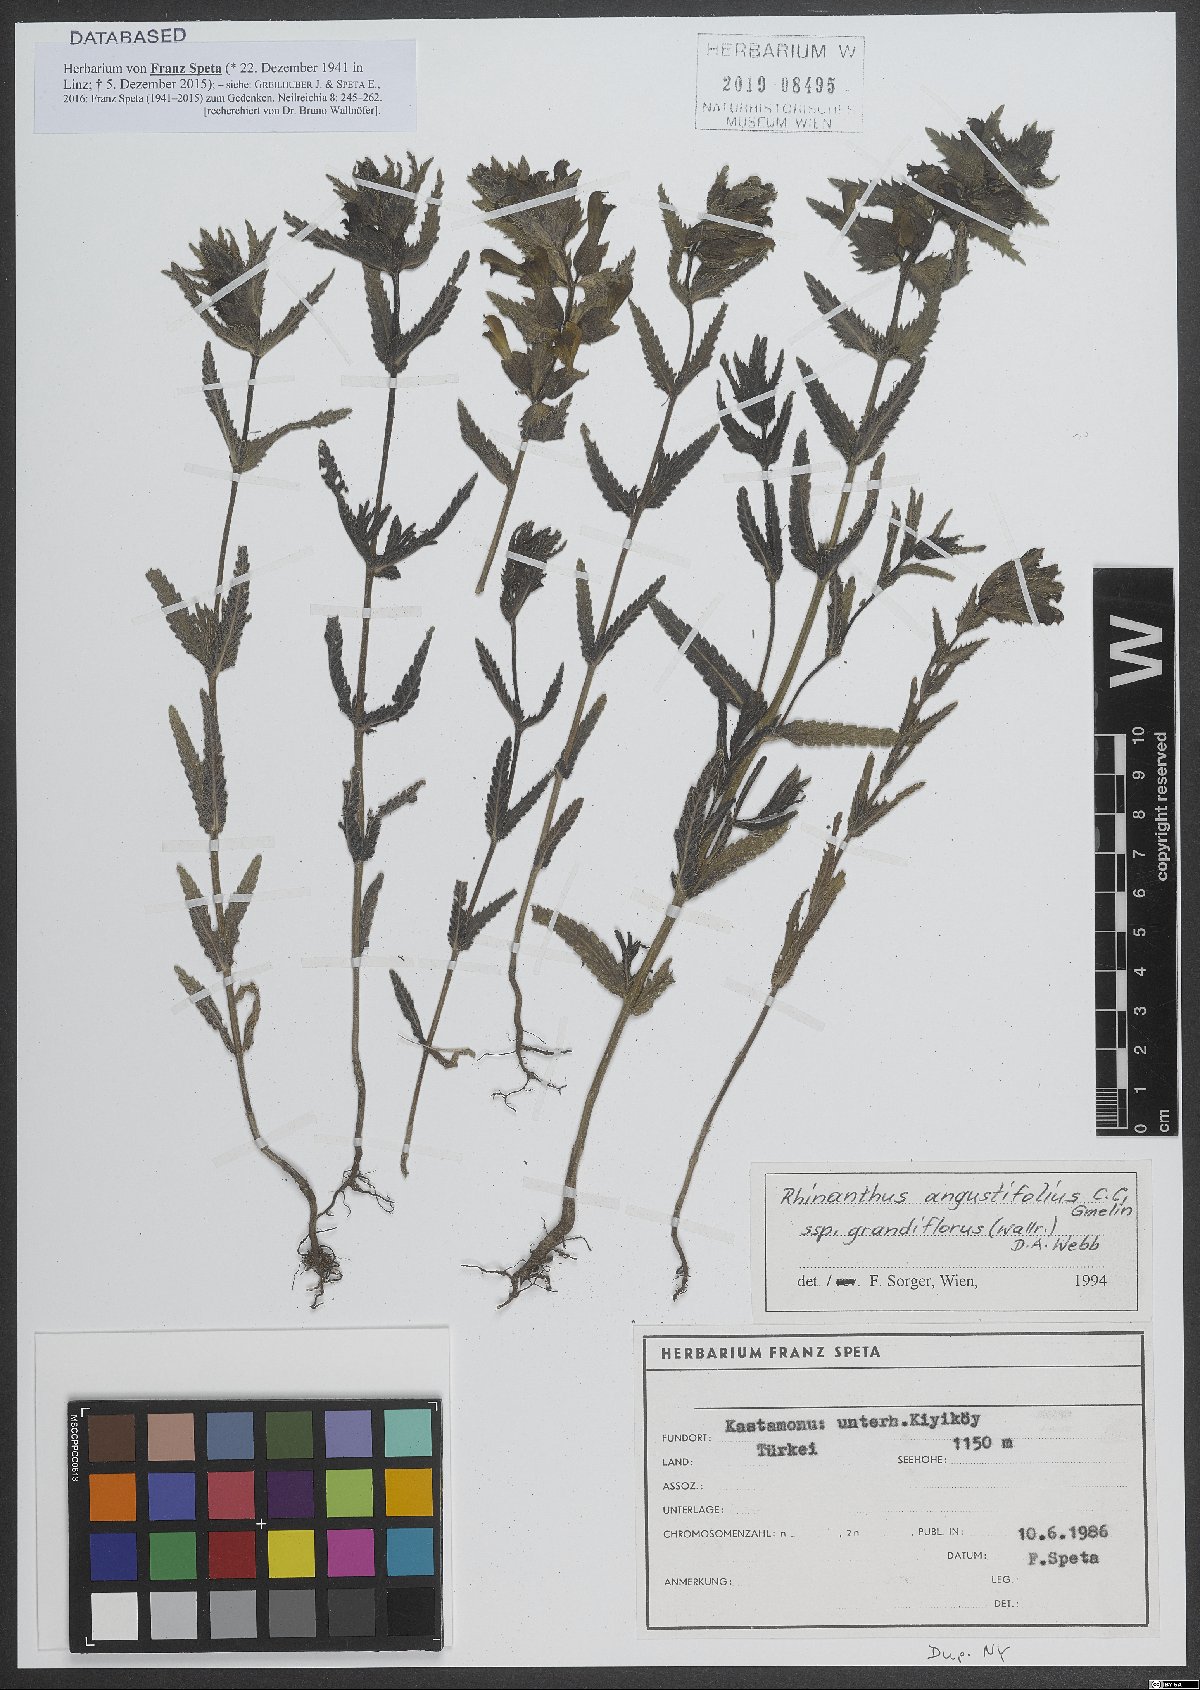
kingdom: Plantae
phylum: Tracheophyta
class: Magnoliopsida
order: Lamiales
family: Orobanchaceae
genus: Rhinanthus
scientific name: Rhinanthus serotinus
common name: Late-flowering yellow rattle
